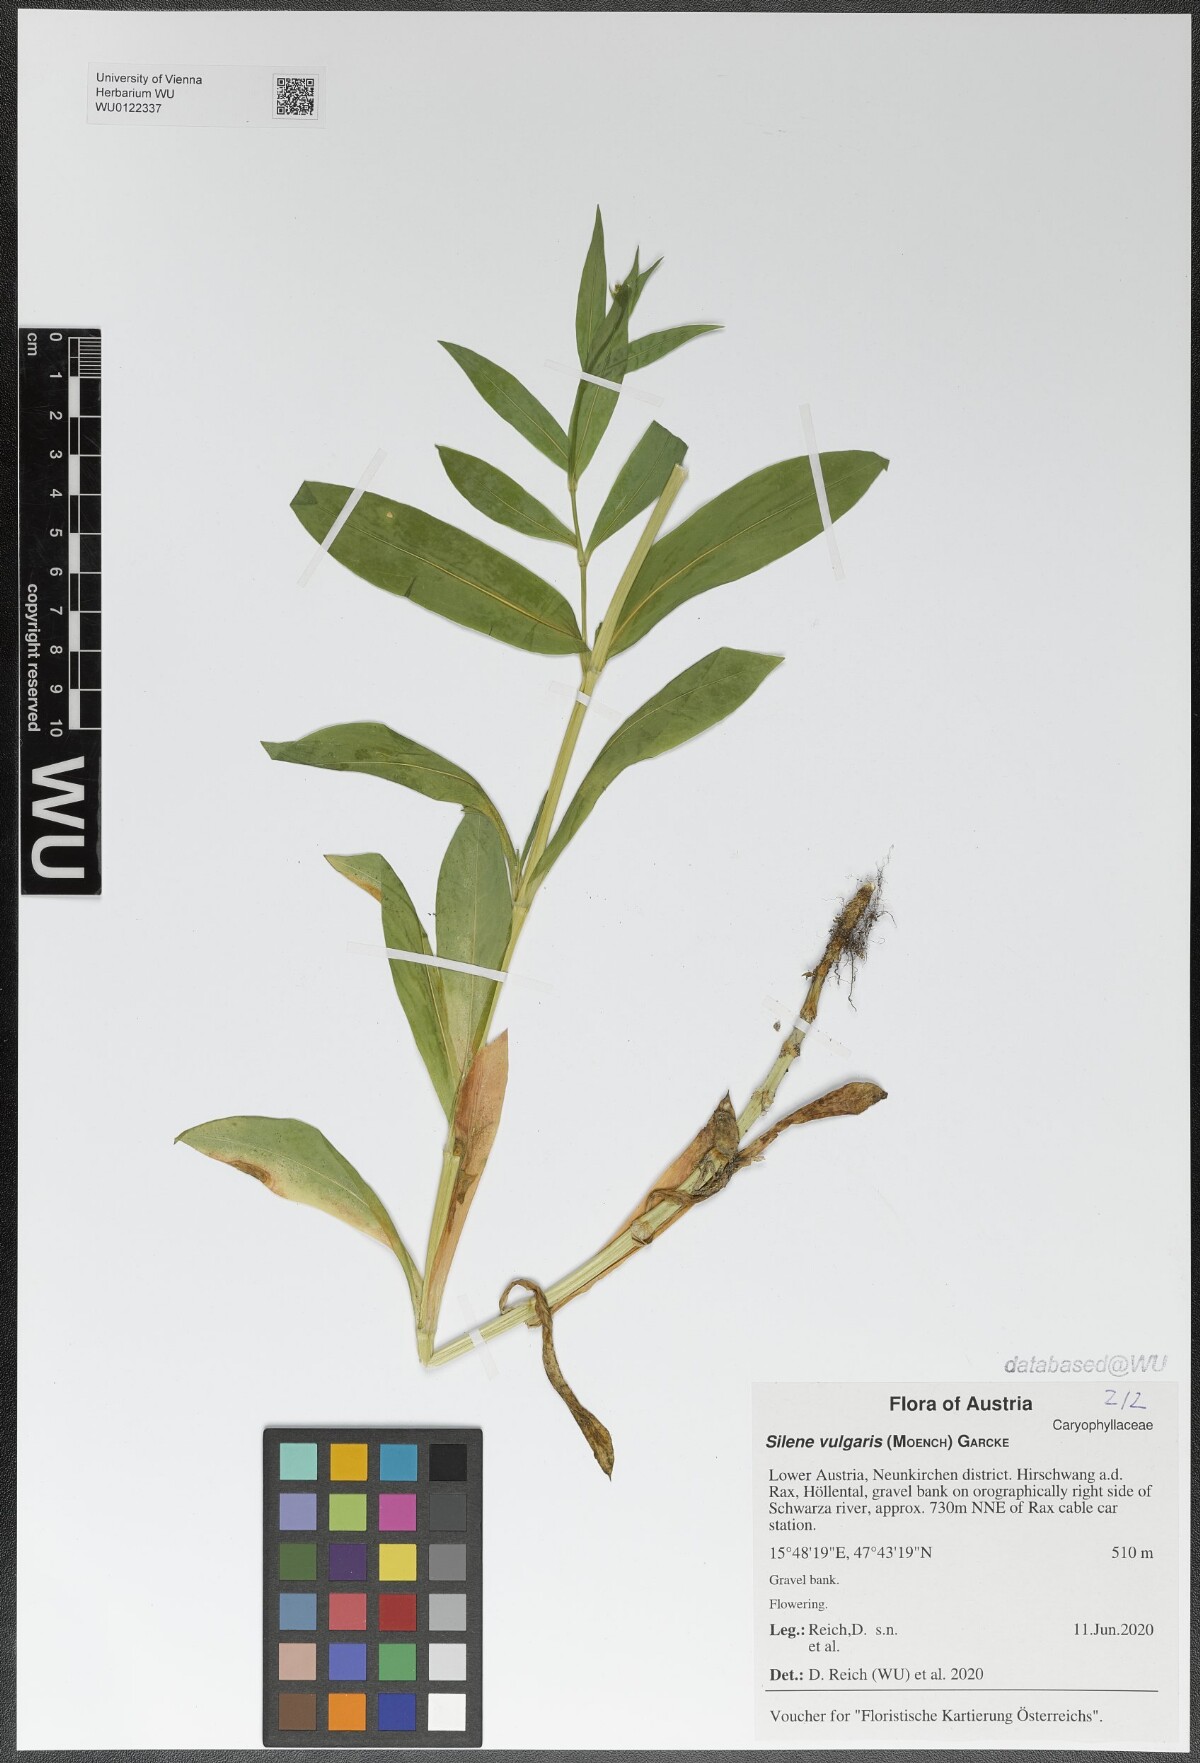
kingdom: Plantae
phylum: Tracheophyta
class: Magnoliopsida
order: Caryophyllales
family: Caryophyllaceae
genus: Silene
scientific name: Silene vulgaris
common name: Bladder campion
